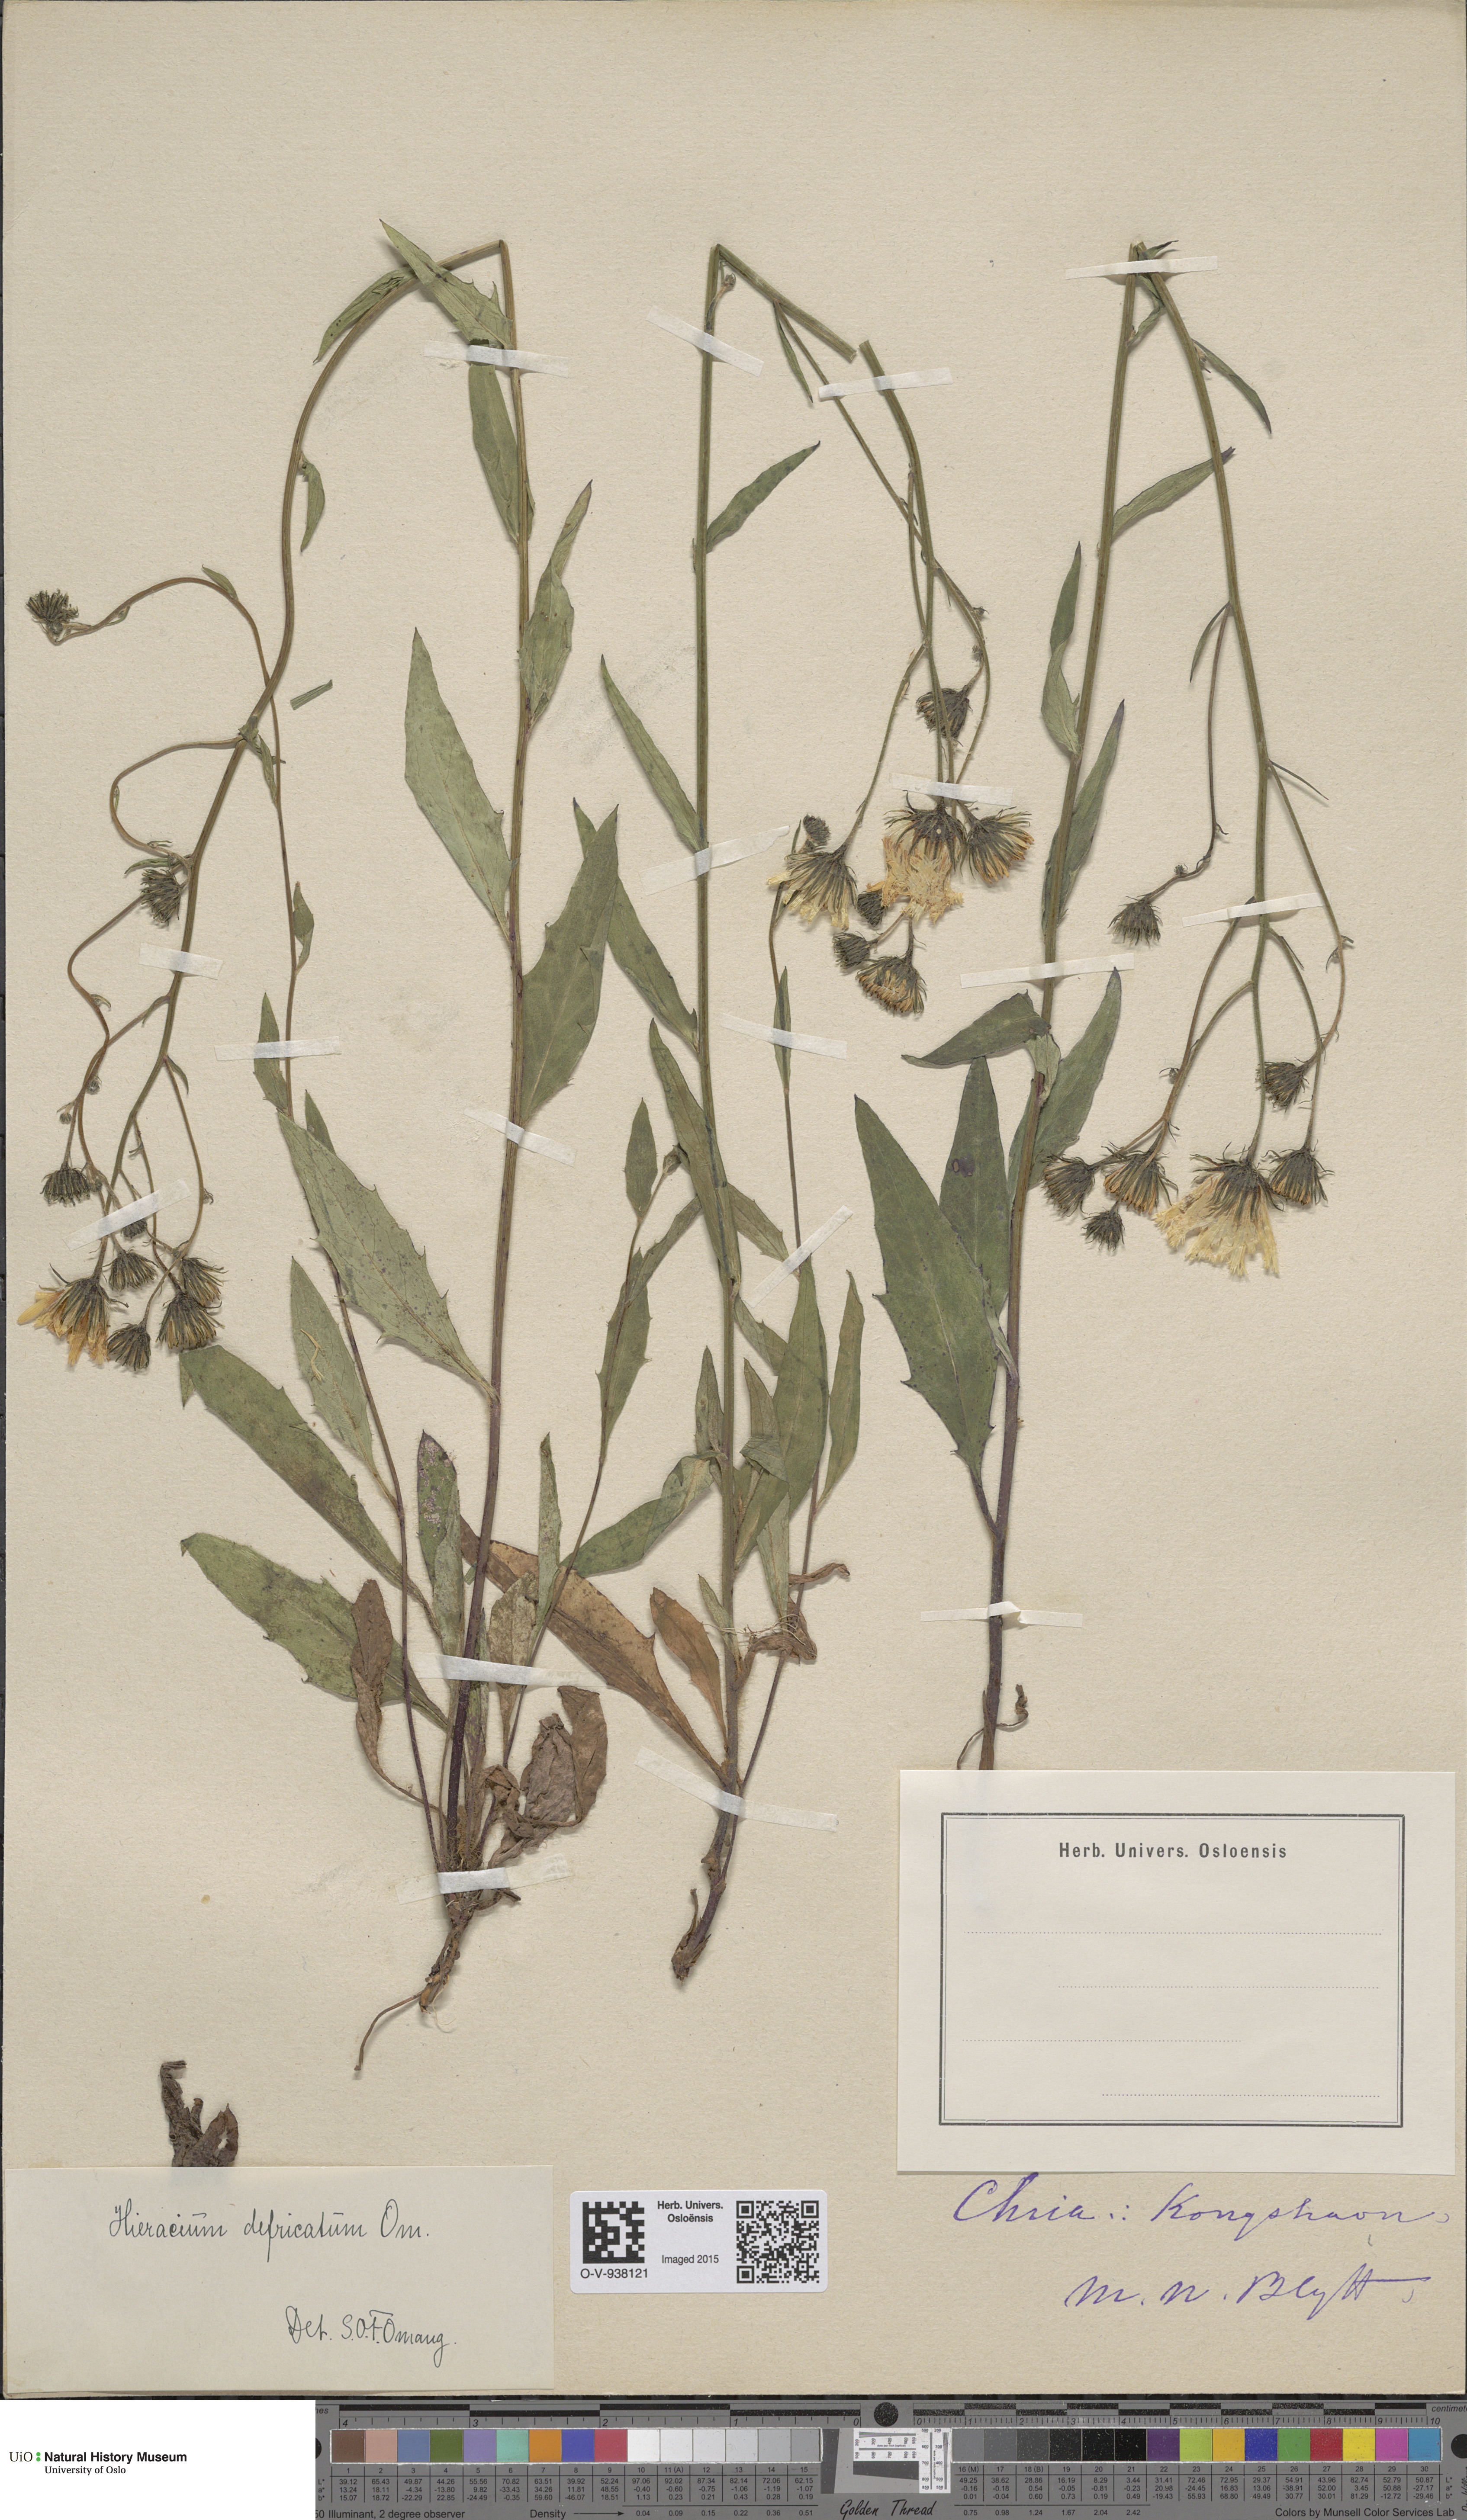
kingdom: Plantae
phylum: Tracheophyta
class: Magnoliopsida
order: Asterales
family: Asteraceae
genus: Hieracium
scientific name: Hieracium
